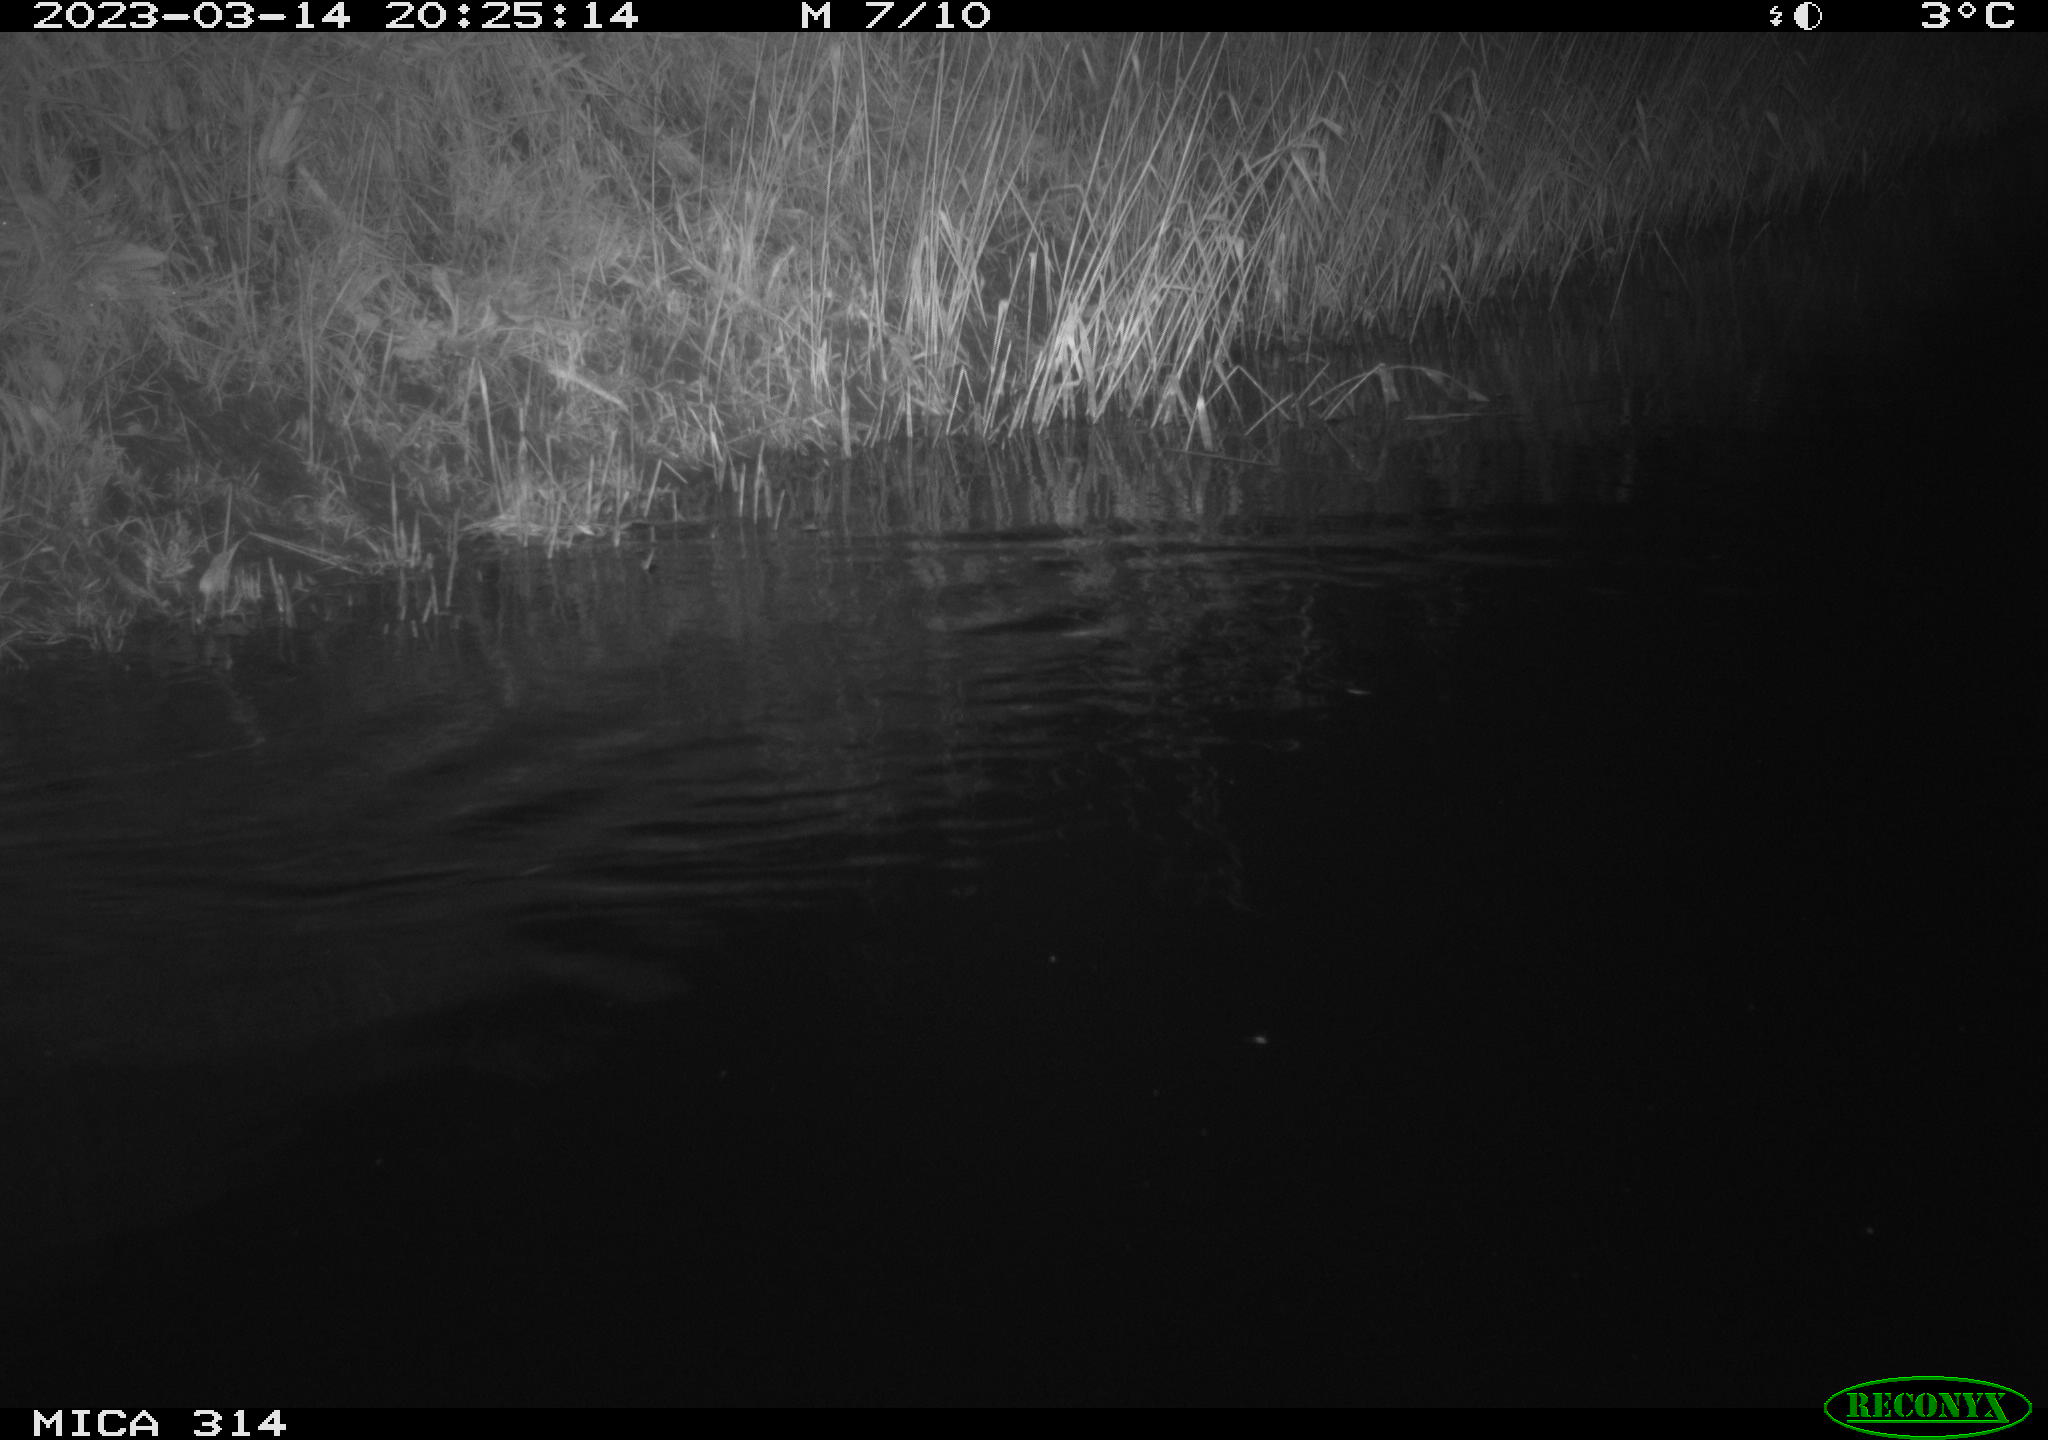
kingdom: Animalia
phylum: Chordata
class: Mammalia
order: Rodentia
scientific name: Rodentia
